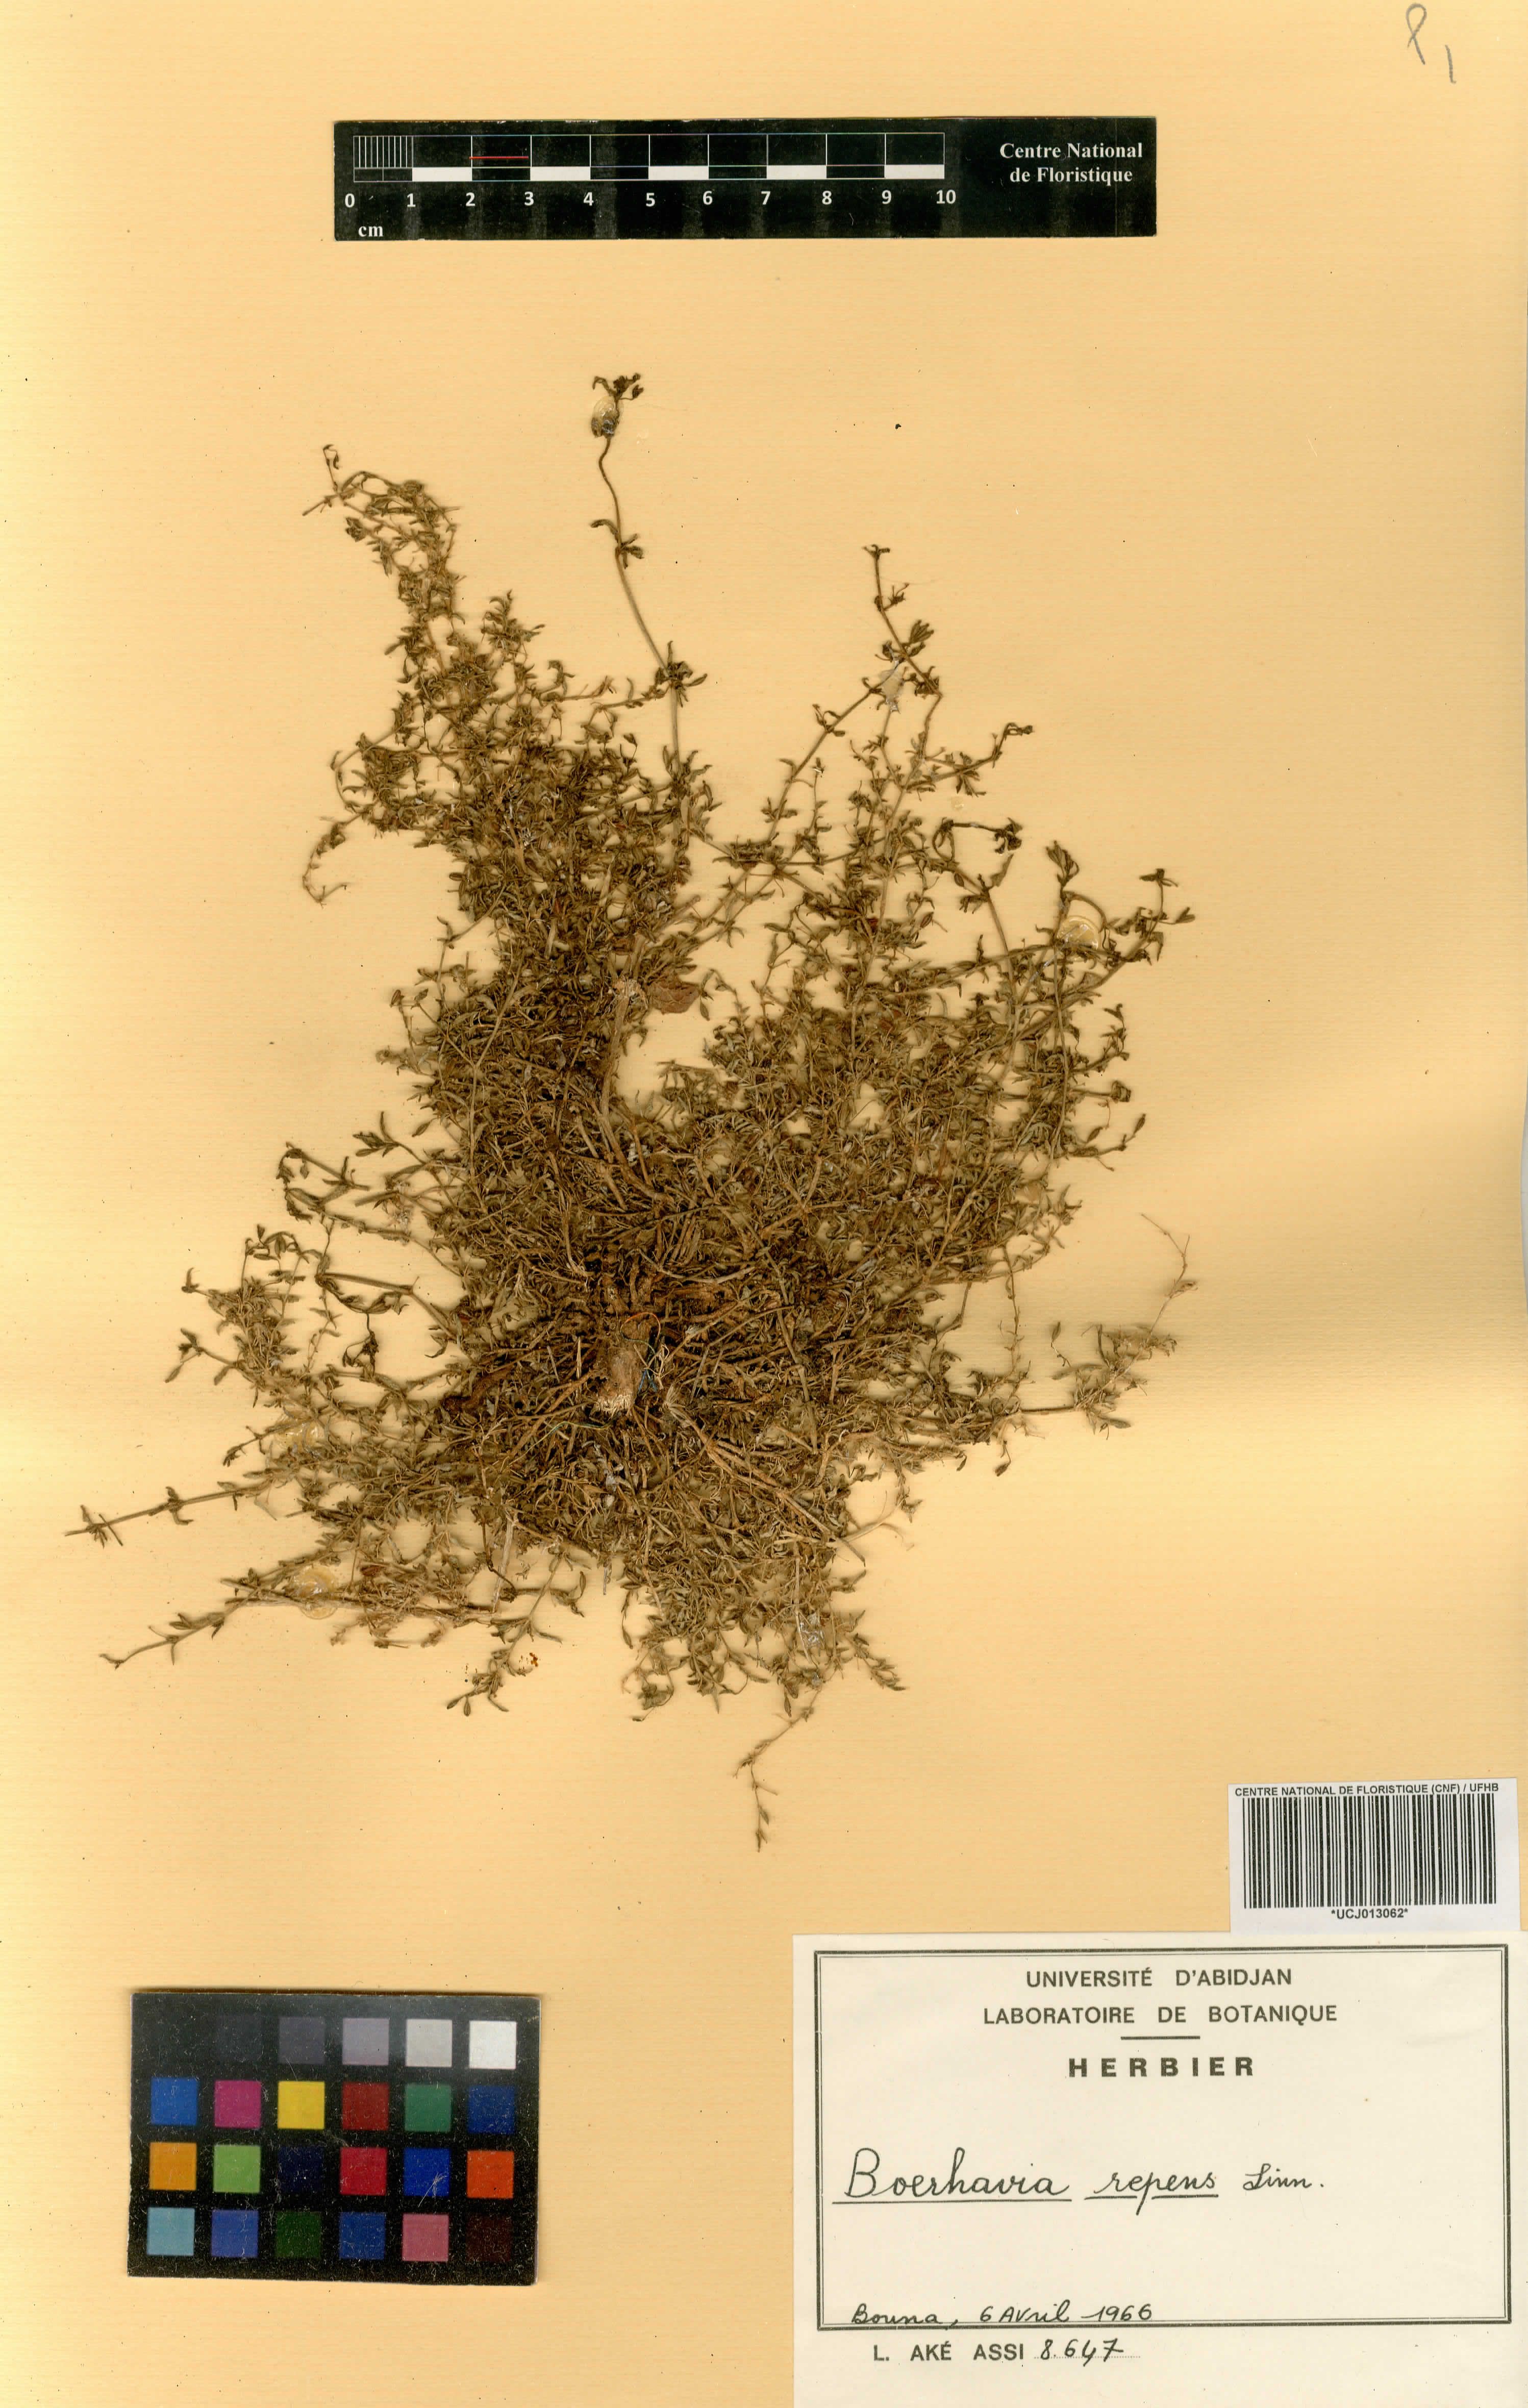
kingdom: Plantae
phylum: Tracheophyta
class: Magnoliopsida
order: Caryophyllales
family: Nyctaginaceae
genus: Boerhavia
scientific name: Boerhavia repens
